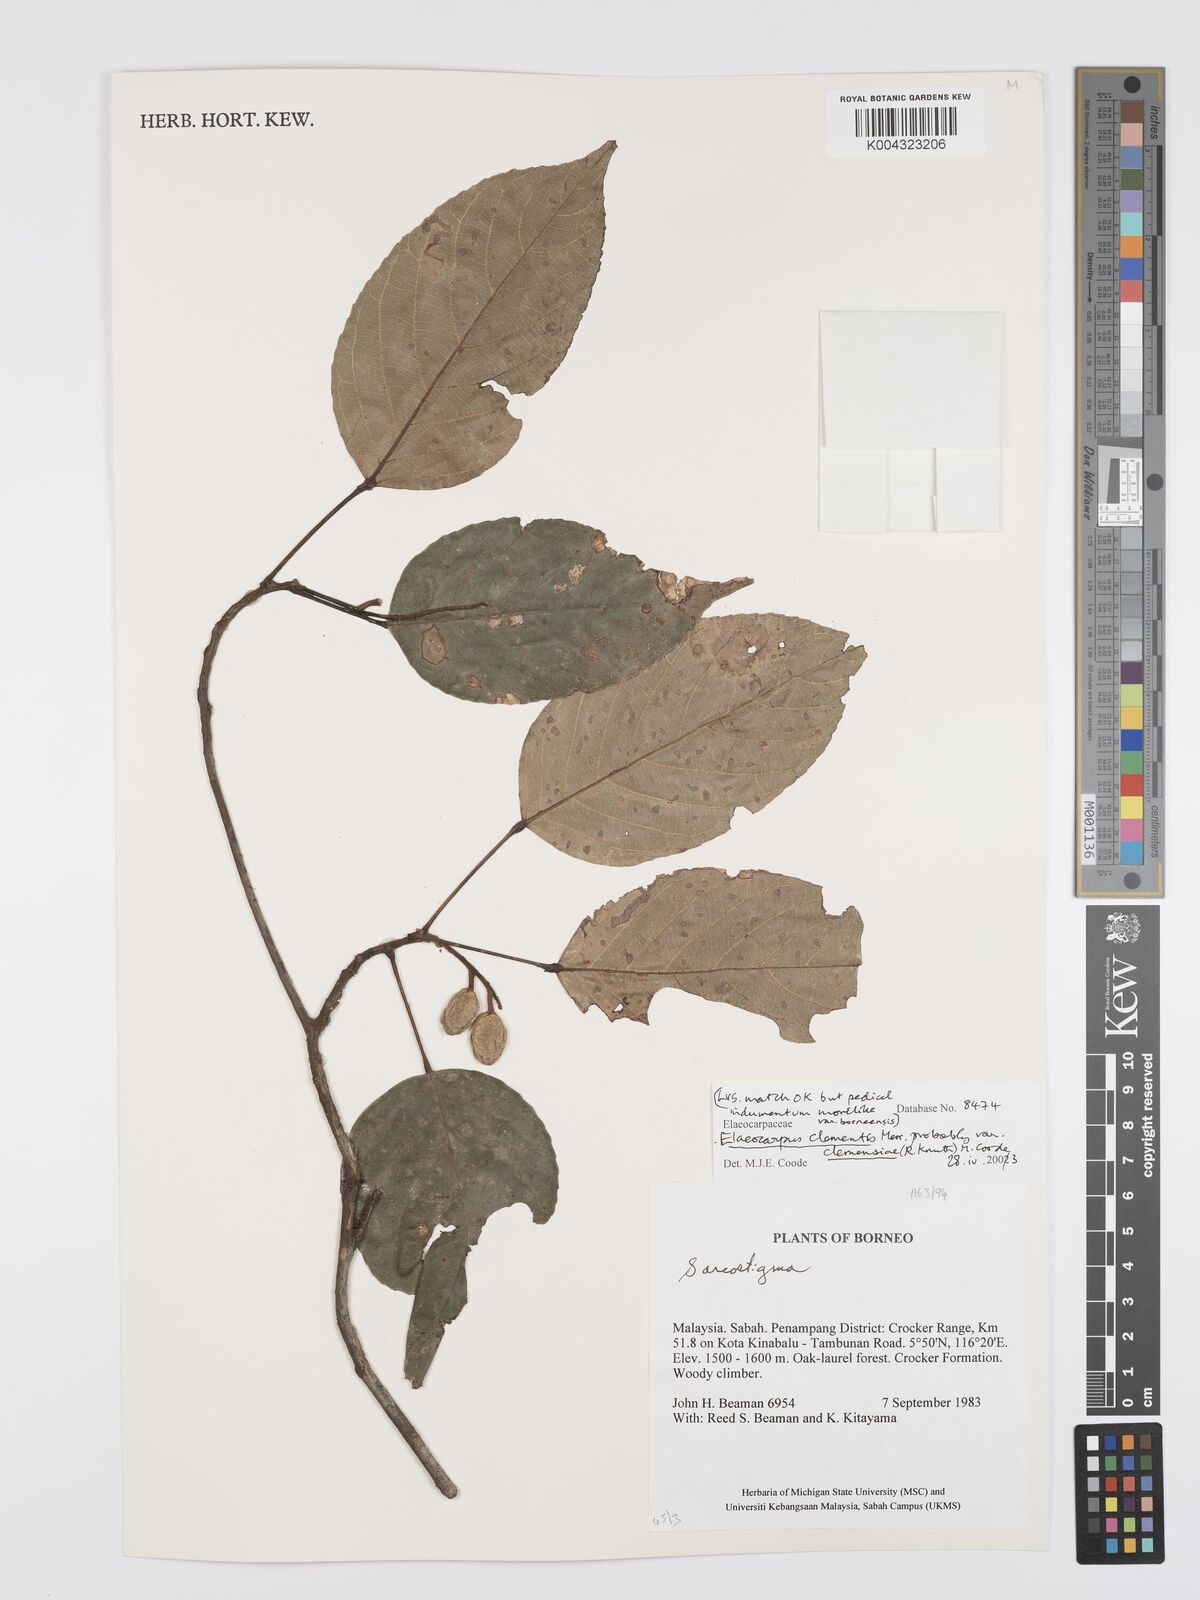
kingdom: Plantae
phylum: Tracheophyta
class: Magnoliopsida
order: Oxalidales
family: Elaeocarpaceae
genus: Elaeocarpus
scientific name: Elaeocarpus clementis
